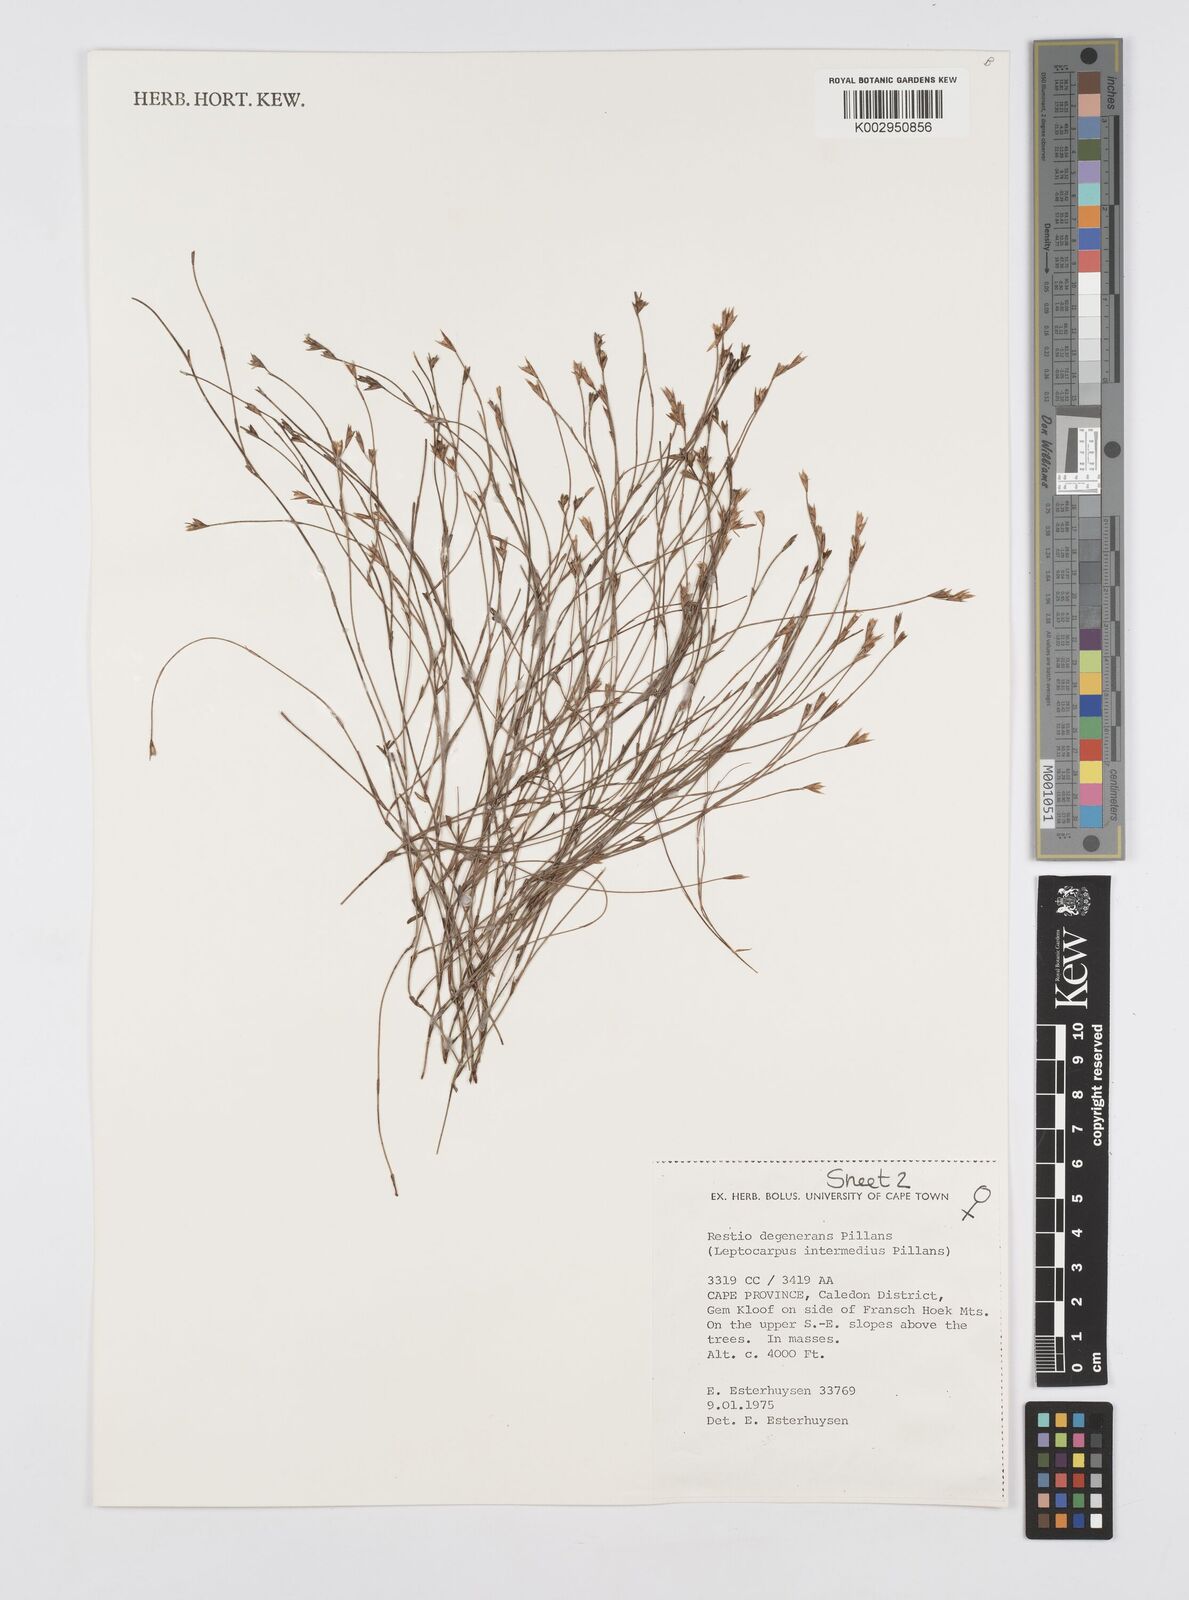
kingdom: Plantae
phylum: Tracheophyta
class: Liliopsida
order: Poales
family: Restionaceae
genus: Restio
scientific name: Restio degenerans
